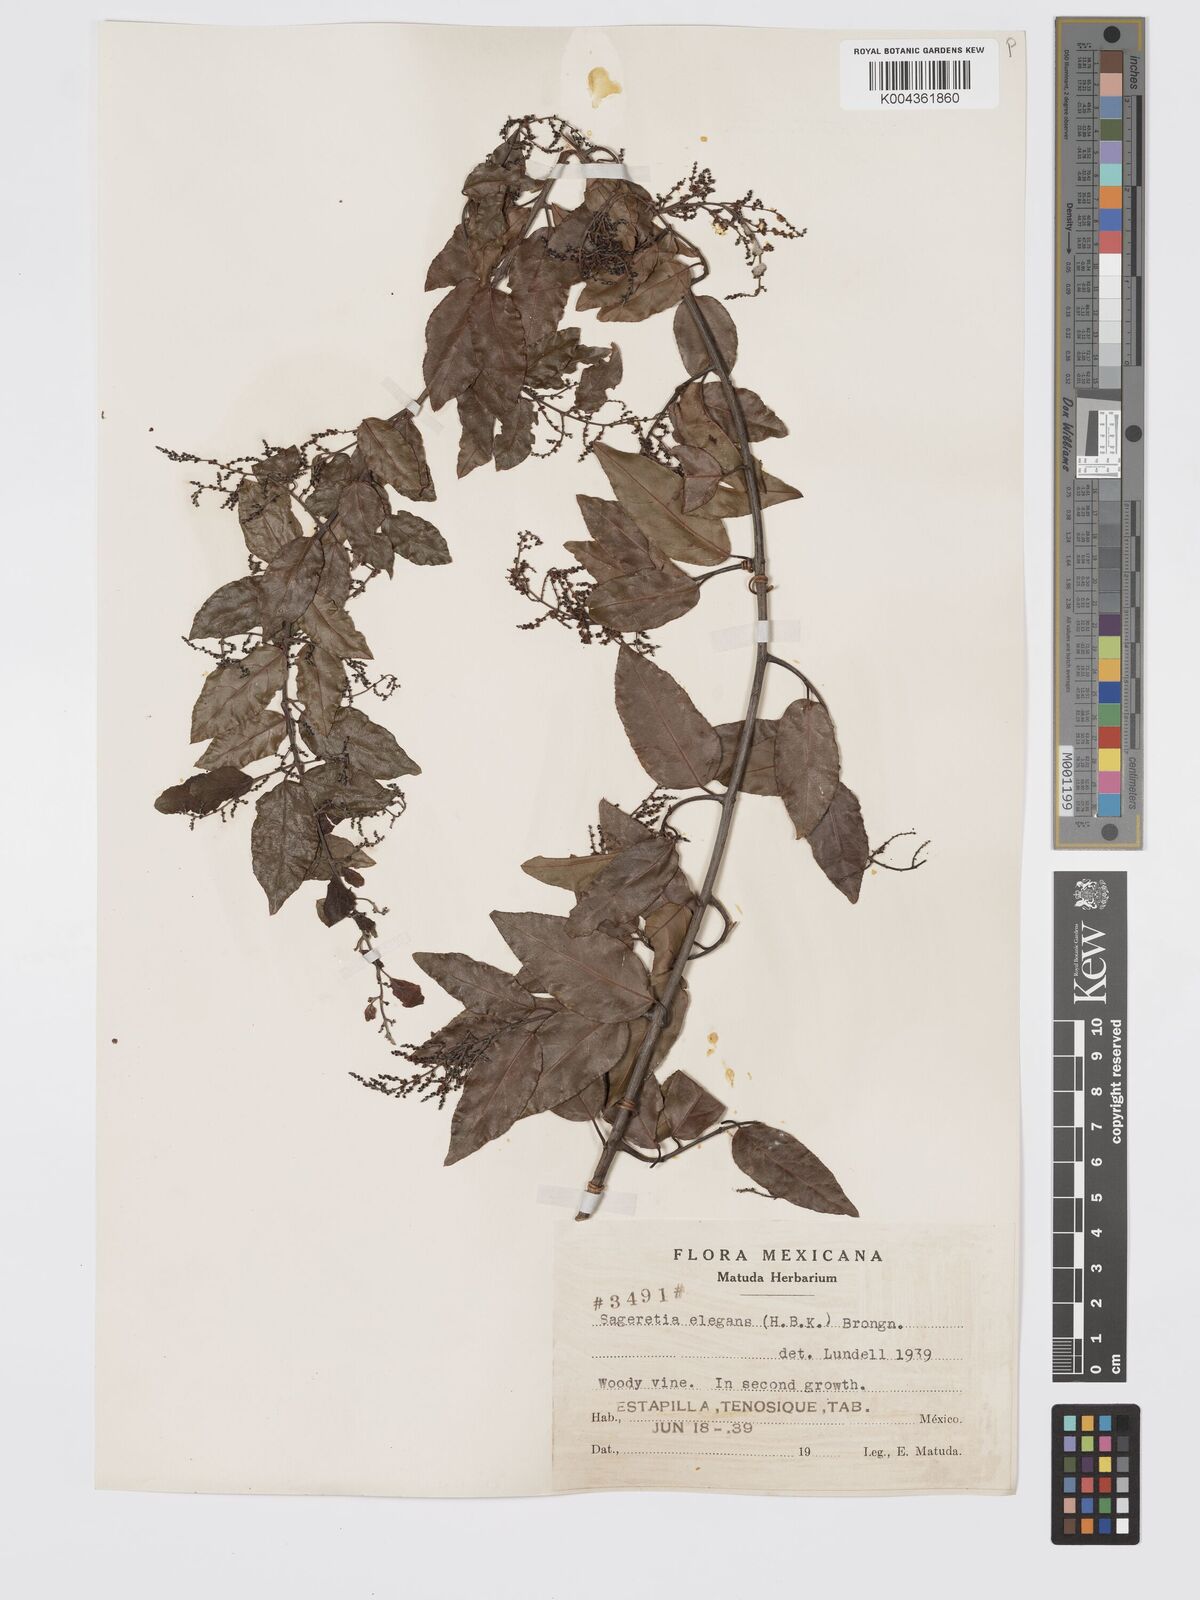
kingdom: Plantae
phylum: Tracheophyta
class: Magnoliopsida
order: Rosales
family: Rhamnaceae
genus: Sageretia
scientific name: Sageretia elegans
